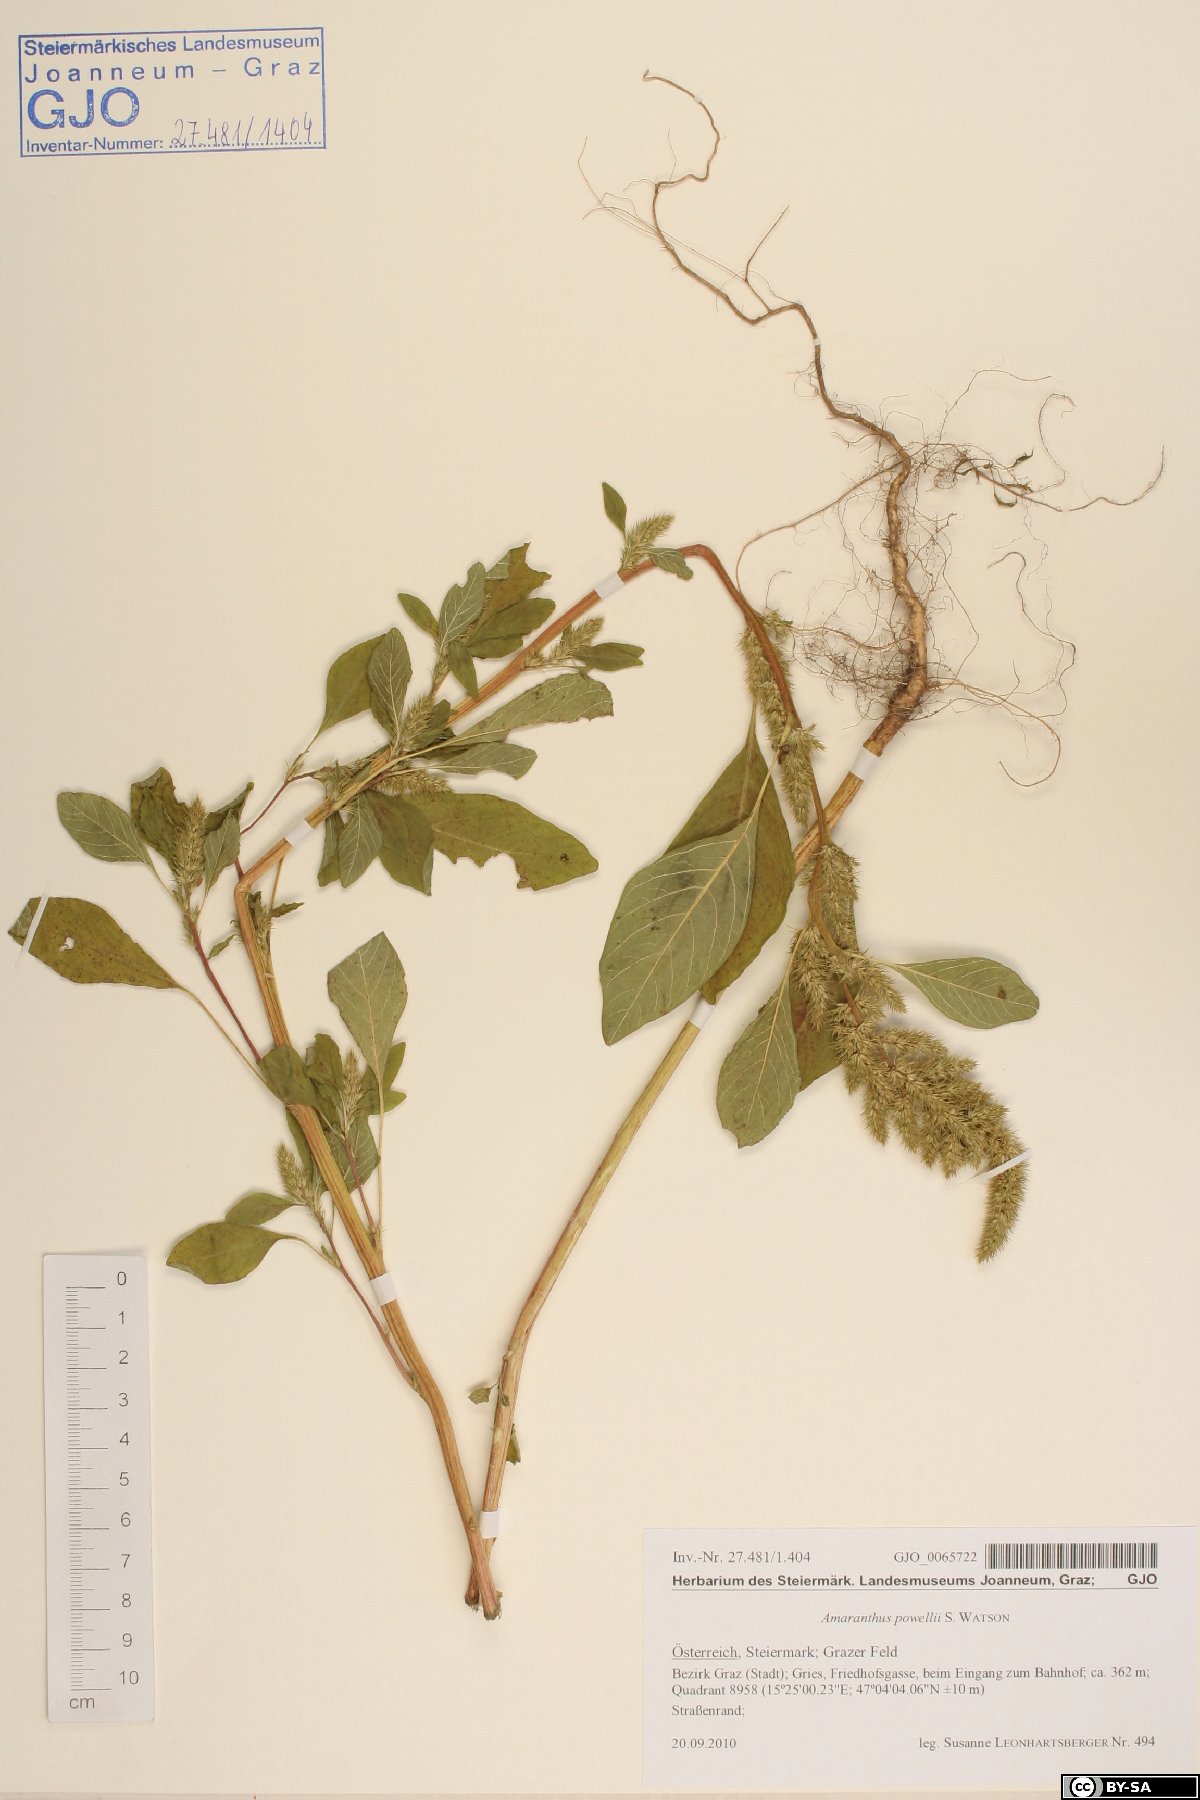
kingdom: Plantae
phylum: Tracheophyta
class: Magnoliopsida
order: Caryophyllales
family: Amaranthaceae
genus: Amaranthus
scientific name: Amaranthus powellii
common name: Powell's amaranth
